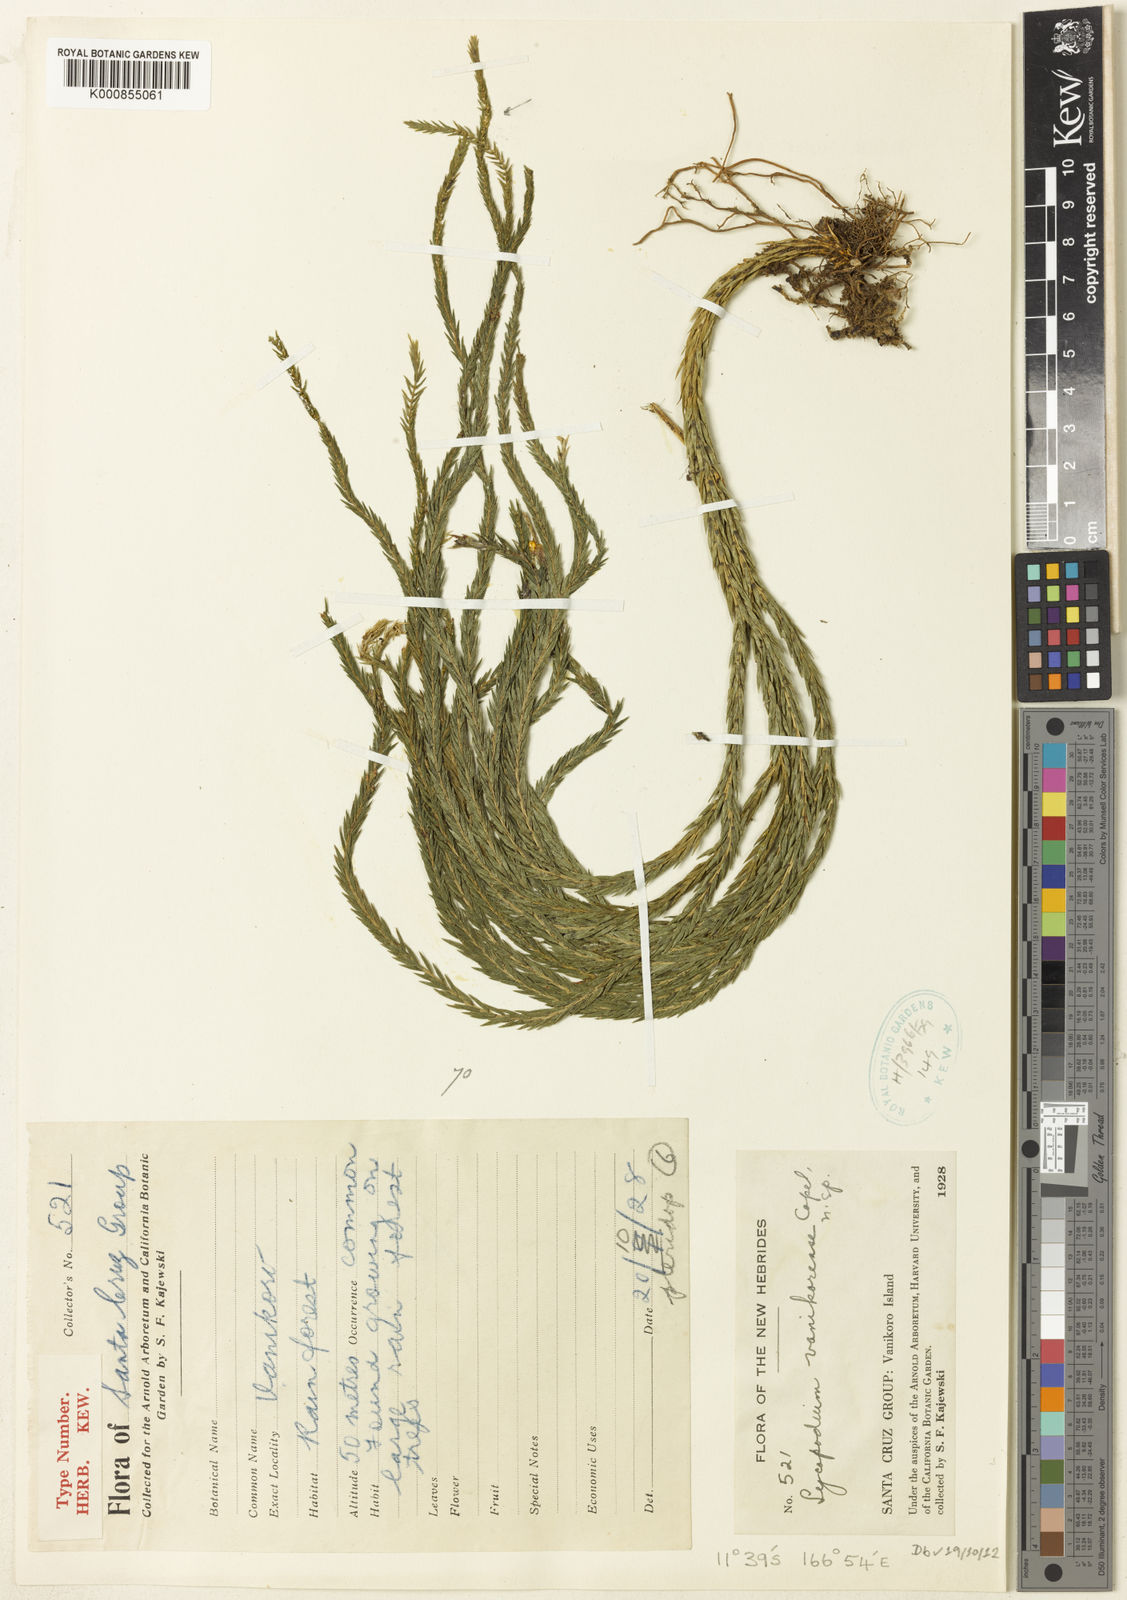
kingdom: Plantae
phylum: Tracheophyta
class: Lycopodiopsida
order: Lycopodiales
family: Lycopodiaceae
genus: Lycopodium
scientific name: Lycopodium
